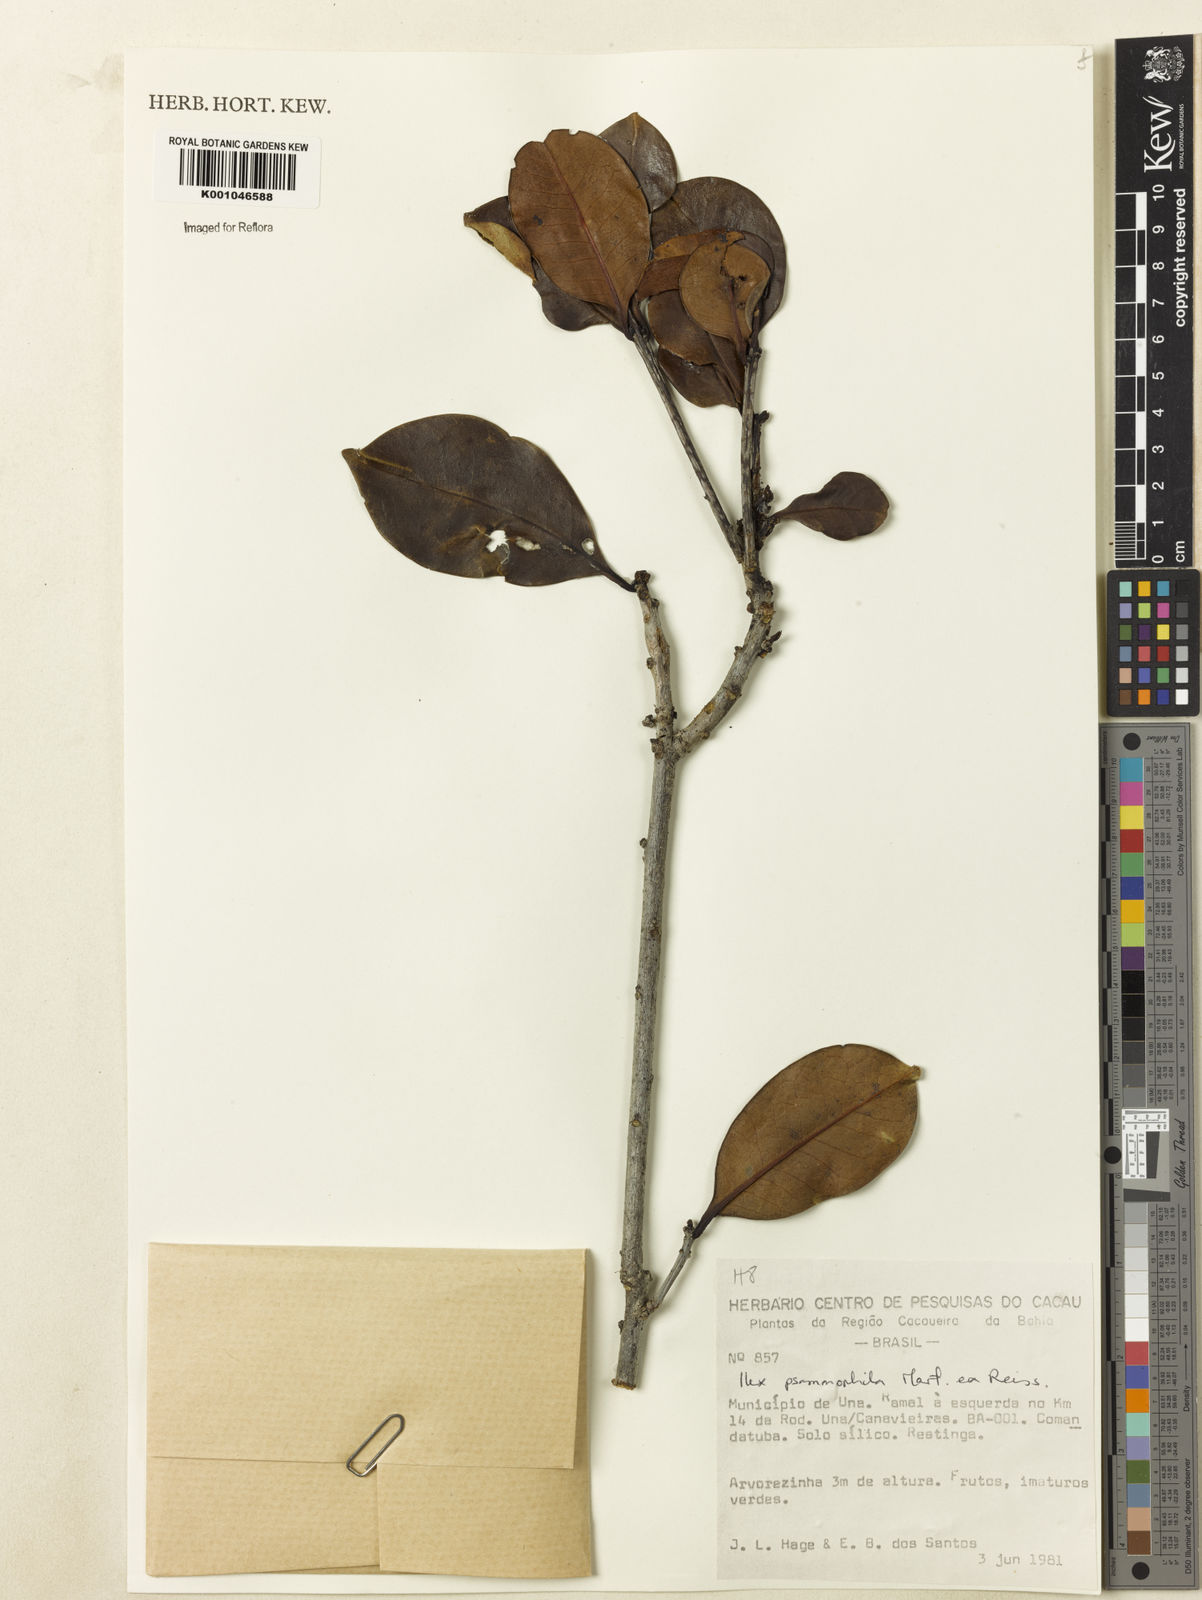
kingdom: Plantae
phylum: Tracheophyta
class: Magnoliopsida
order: Aquifoliales
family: Aquifoliaceae
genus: Ilex
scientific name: Ilex psammophila
